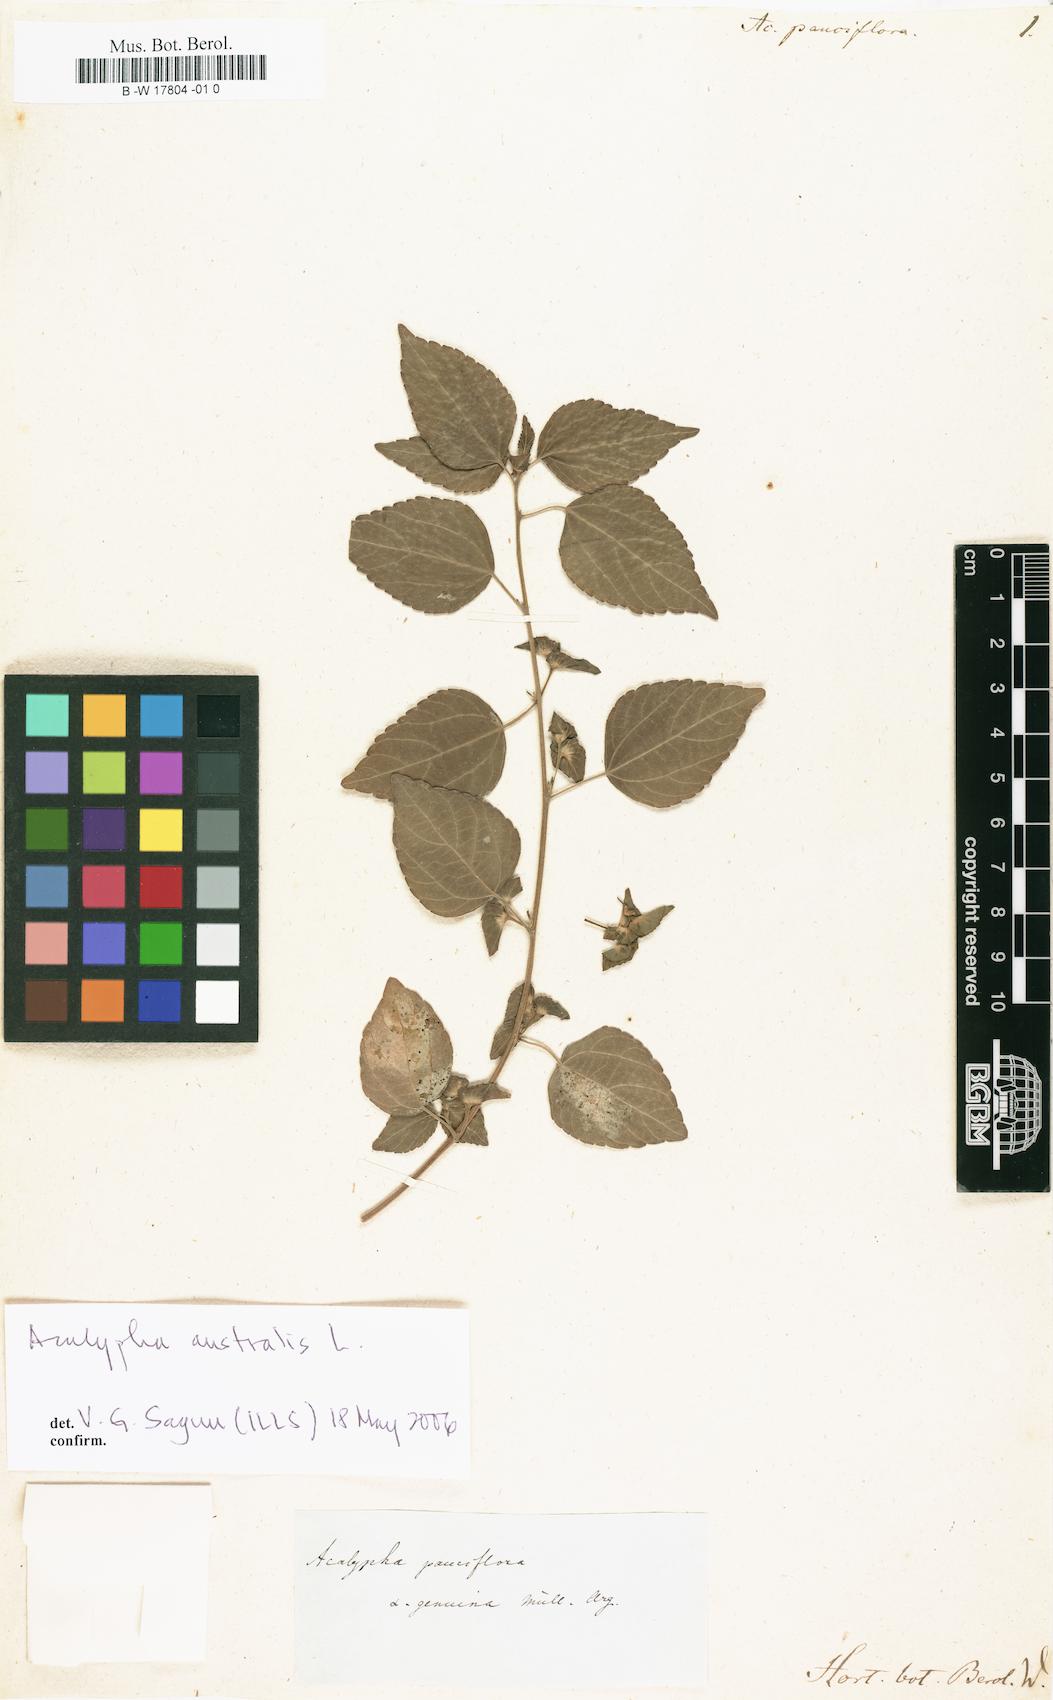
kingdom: Plantae
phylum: Tracheophyta
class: Magnoliopsida
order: Malpighiales
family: Euphorbiaceae
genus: Acalypha
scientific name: Acalypha australis
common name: Asian copperleaf
